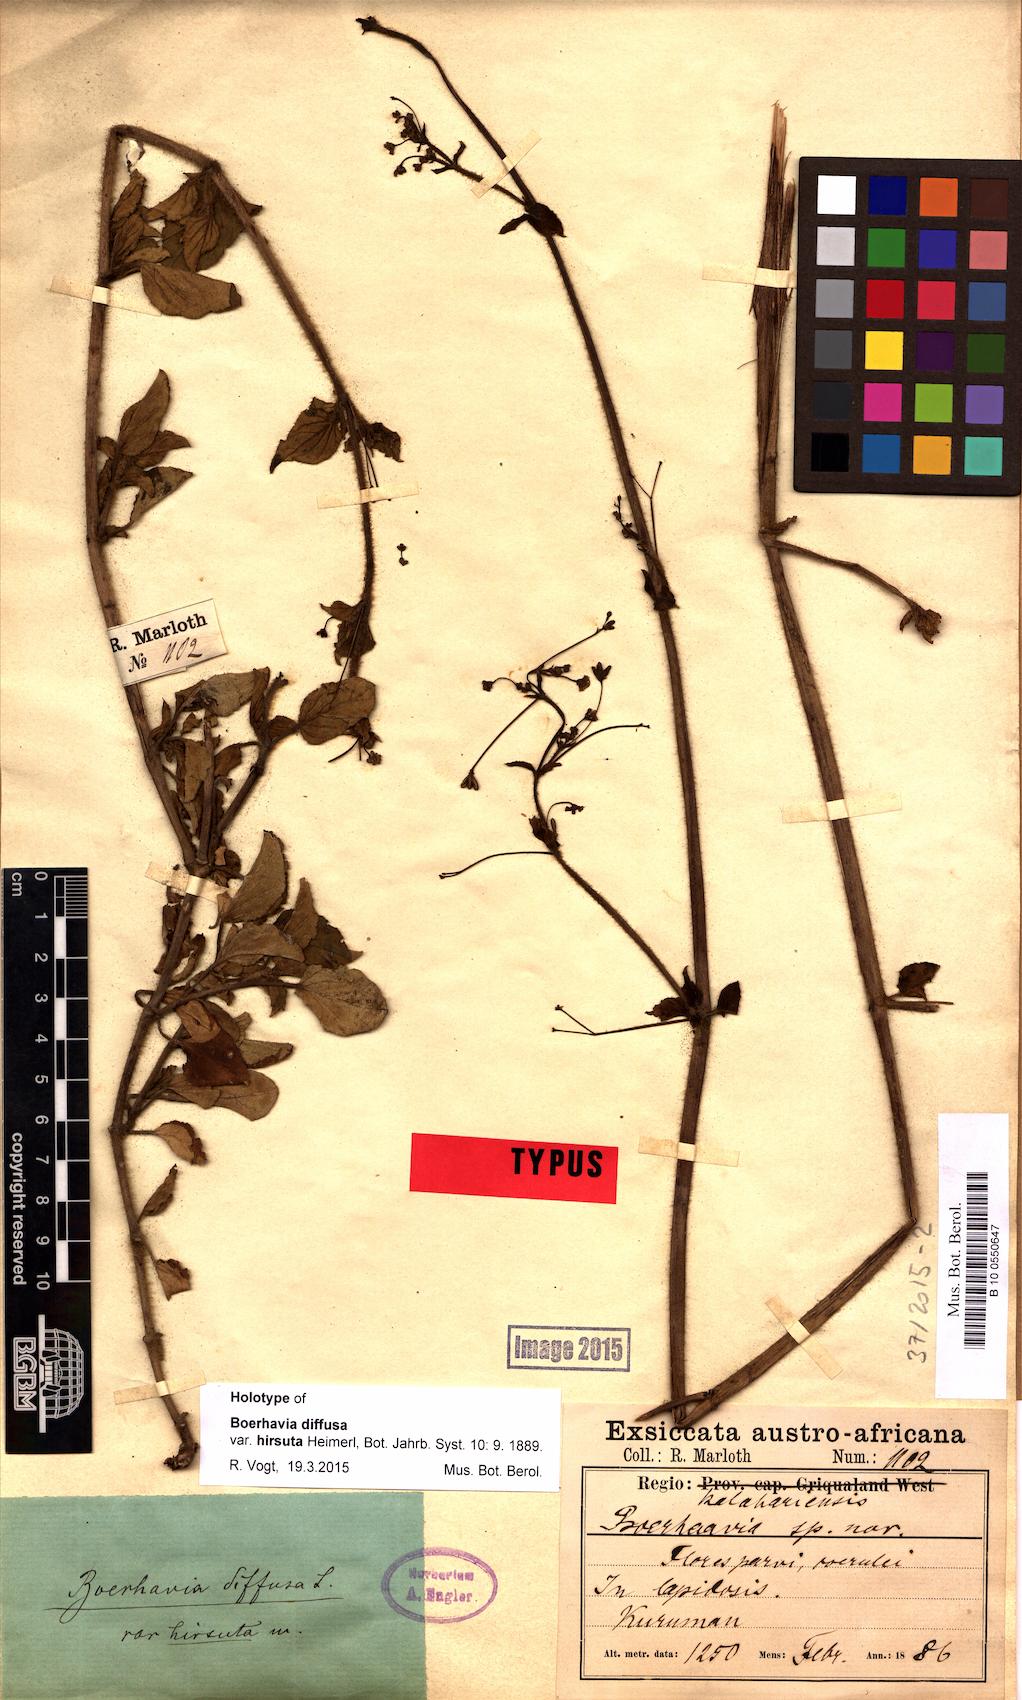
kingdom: Plantae
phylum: Tracheophyta
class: Magnoliopsida
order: Caryophyllales
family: Nyctaginaceae
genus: Boerhavia
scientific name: Boerhavia coccinea
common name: Scarlet spiderling
